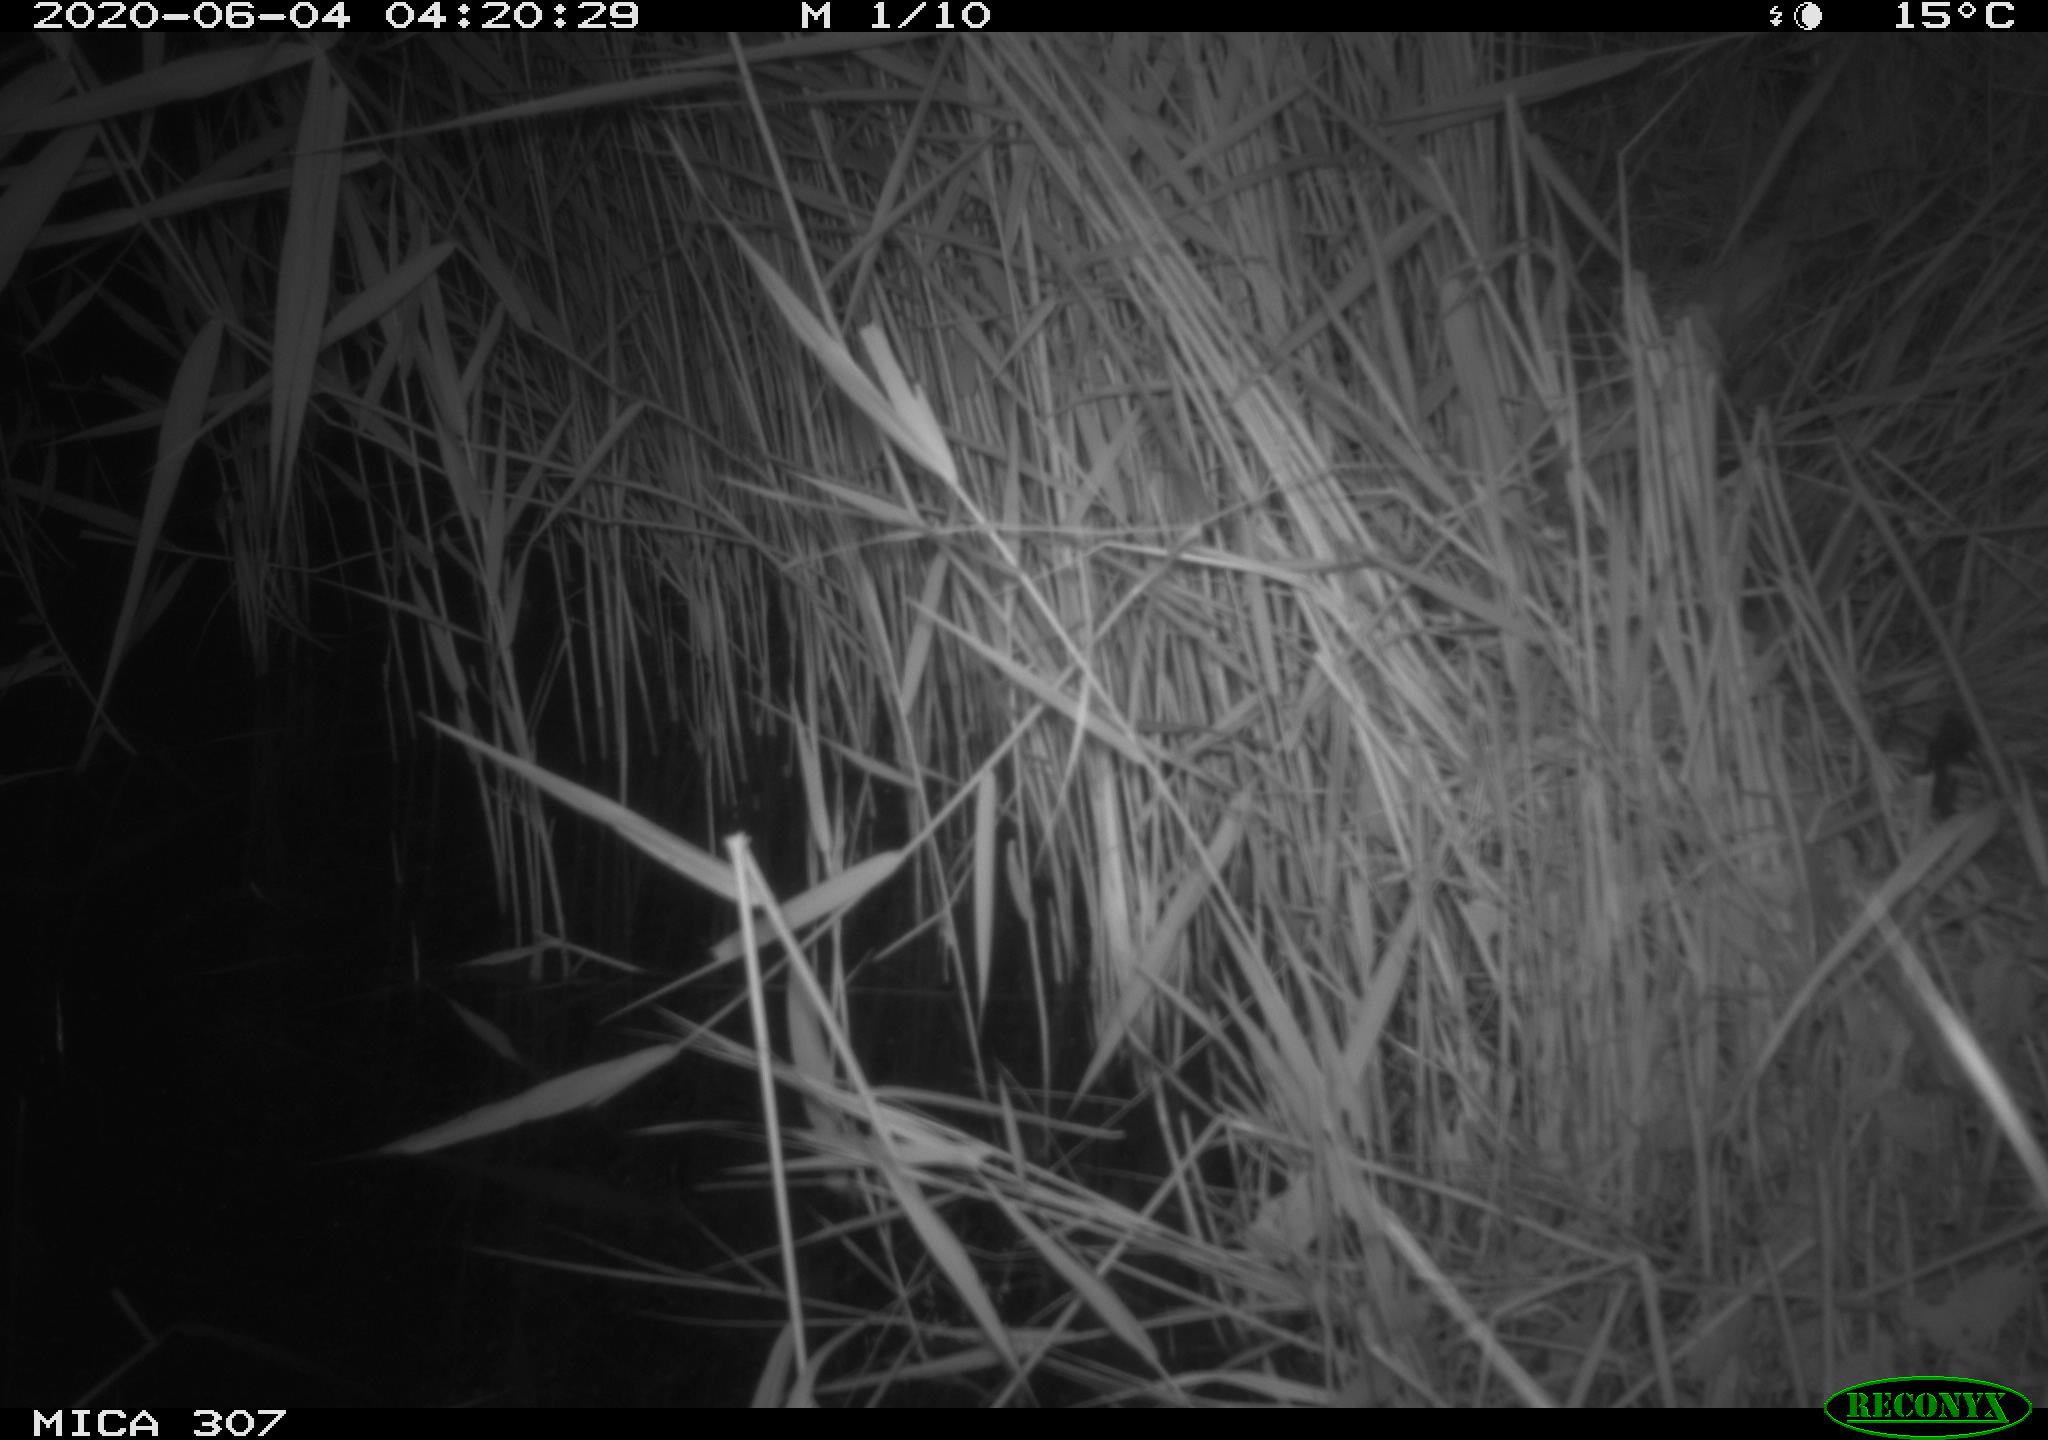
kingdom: Animalia
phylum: Chordata
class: Mammalia
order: Rodentia
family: Muridae
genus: Rattus
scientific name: Rattus norvegicus
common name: Brown rat
